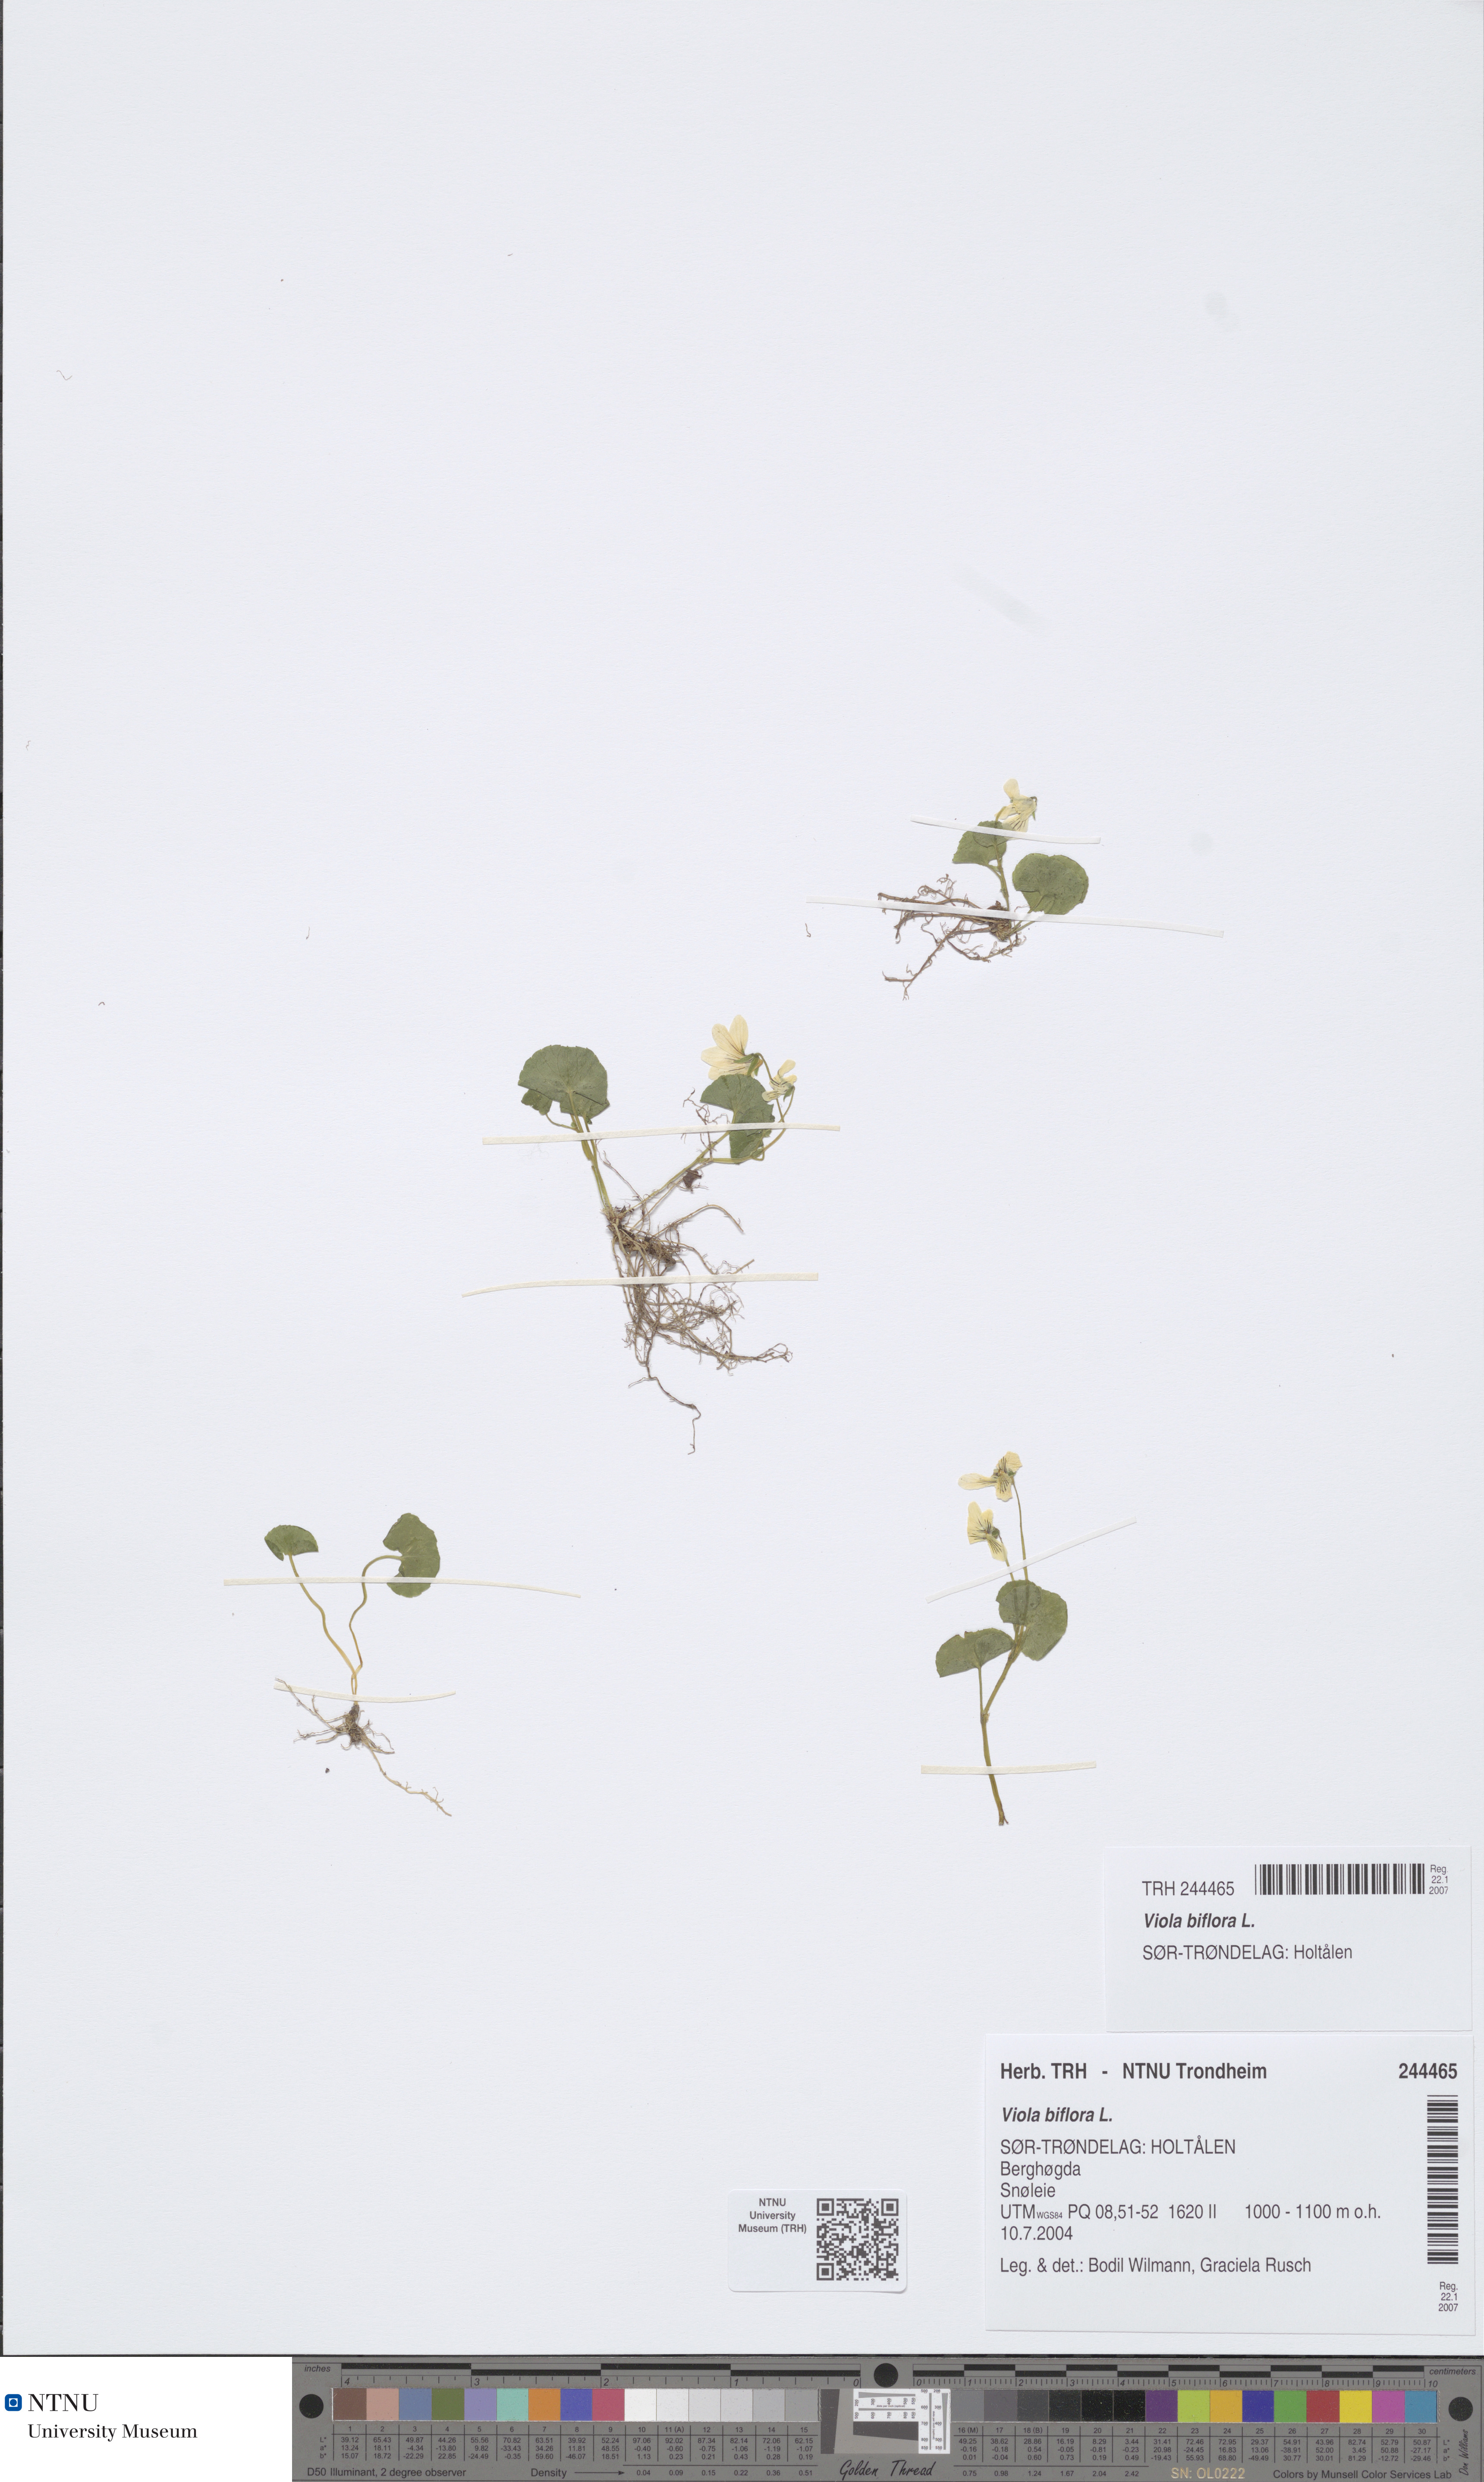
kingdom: Plantae
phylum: Tracheophyta
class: Magnoliopsida
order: Malpighiales
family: Violaceae
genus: Viola
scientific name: Viola biflora
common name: Alpine yellow violet
